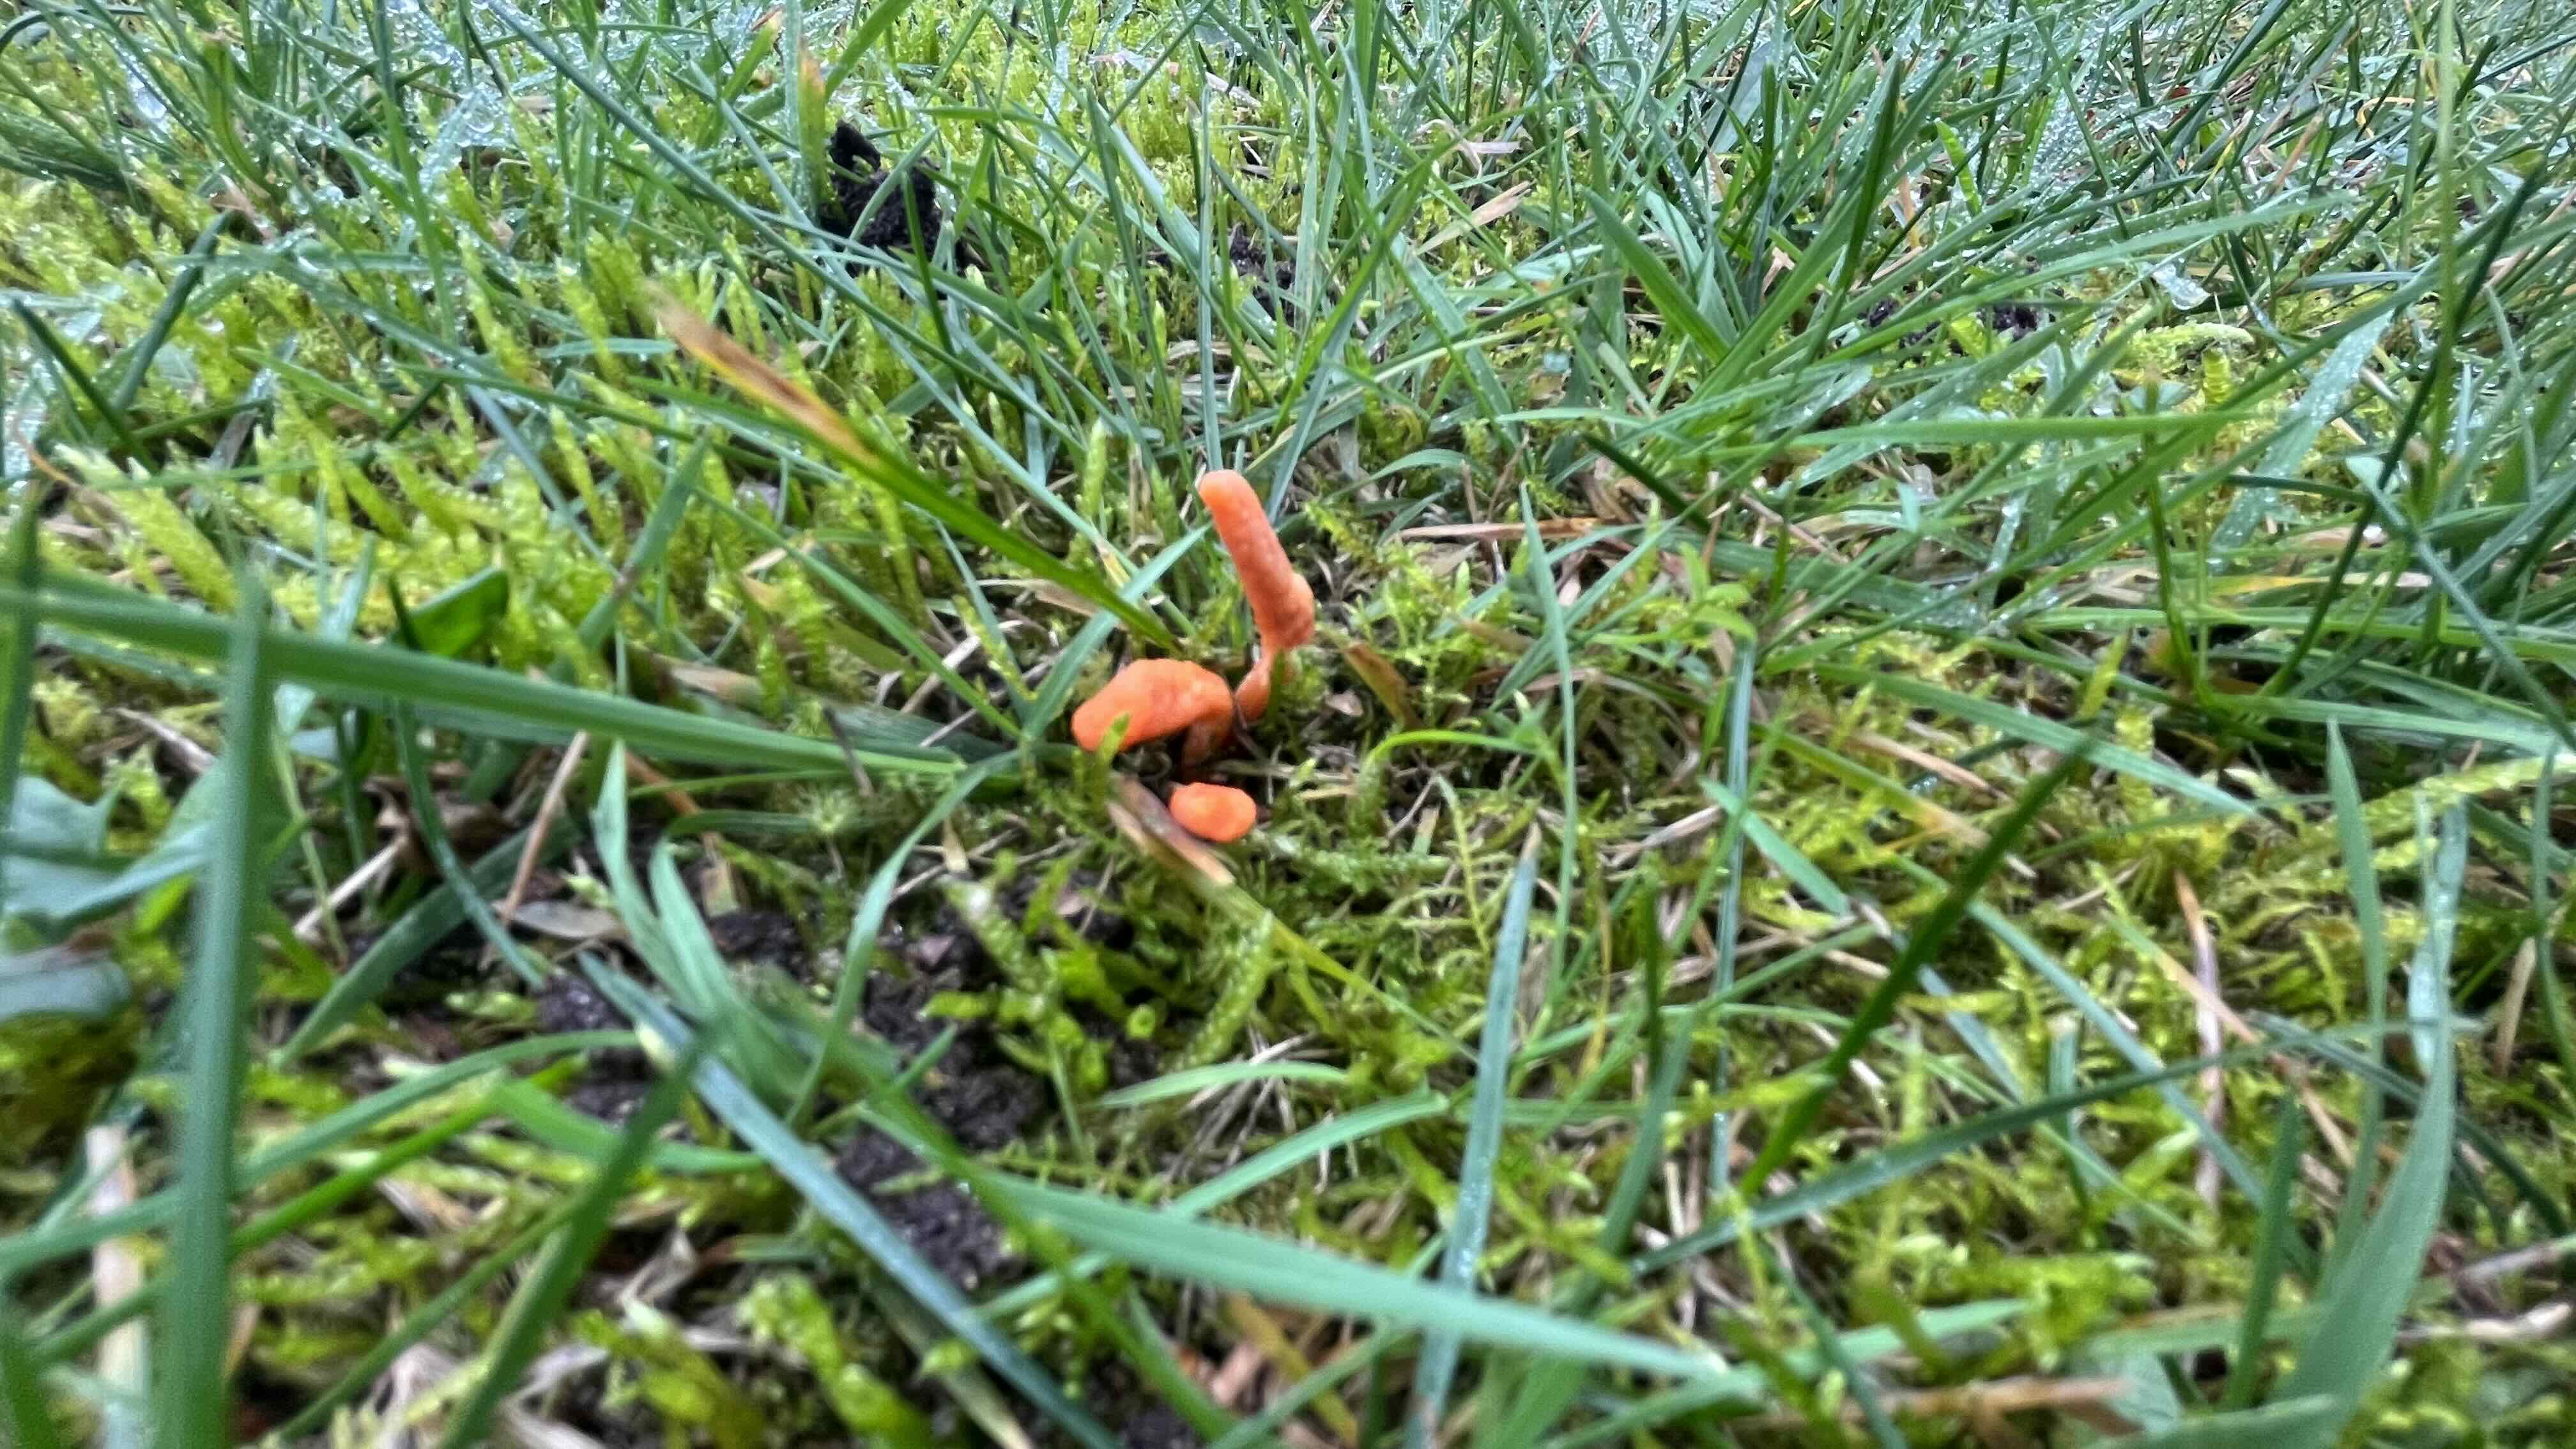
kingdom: Fungi
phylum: Ascomycota
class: Sordariomycetes
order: Hypocreales
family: Cordycipitaceae
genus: Cordyceps
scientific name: Cordyceps militaris
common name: puppe-snyltekølle
